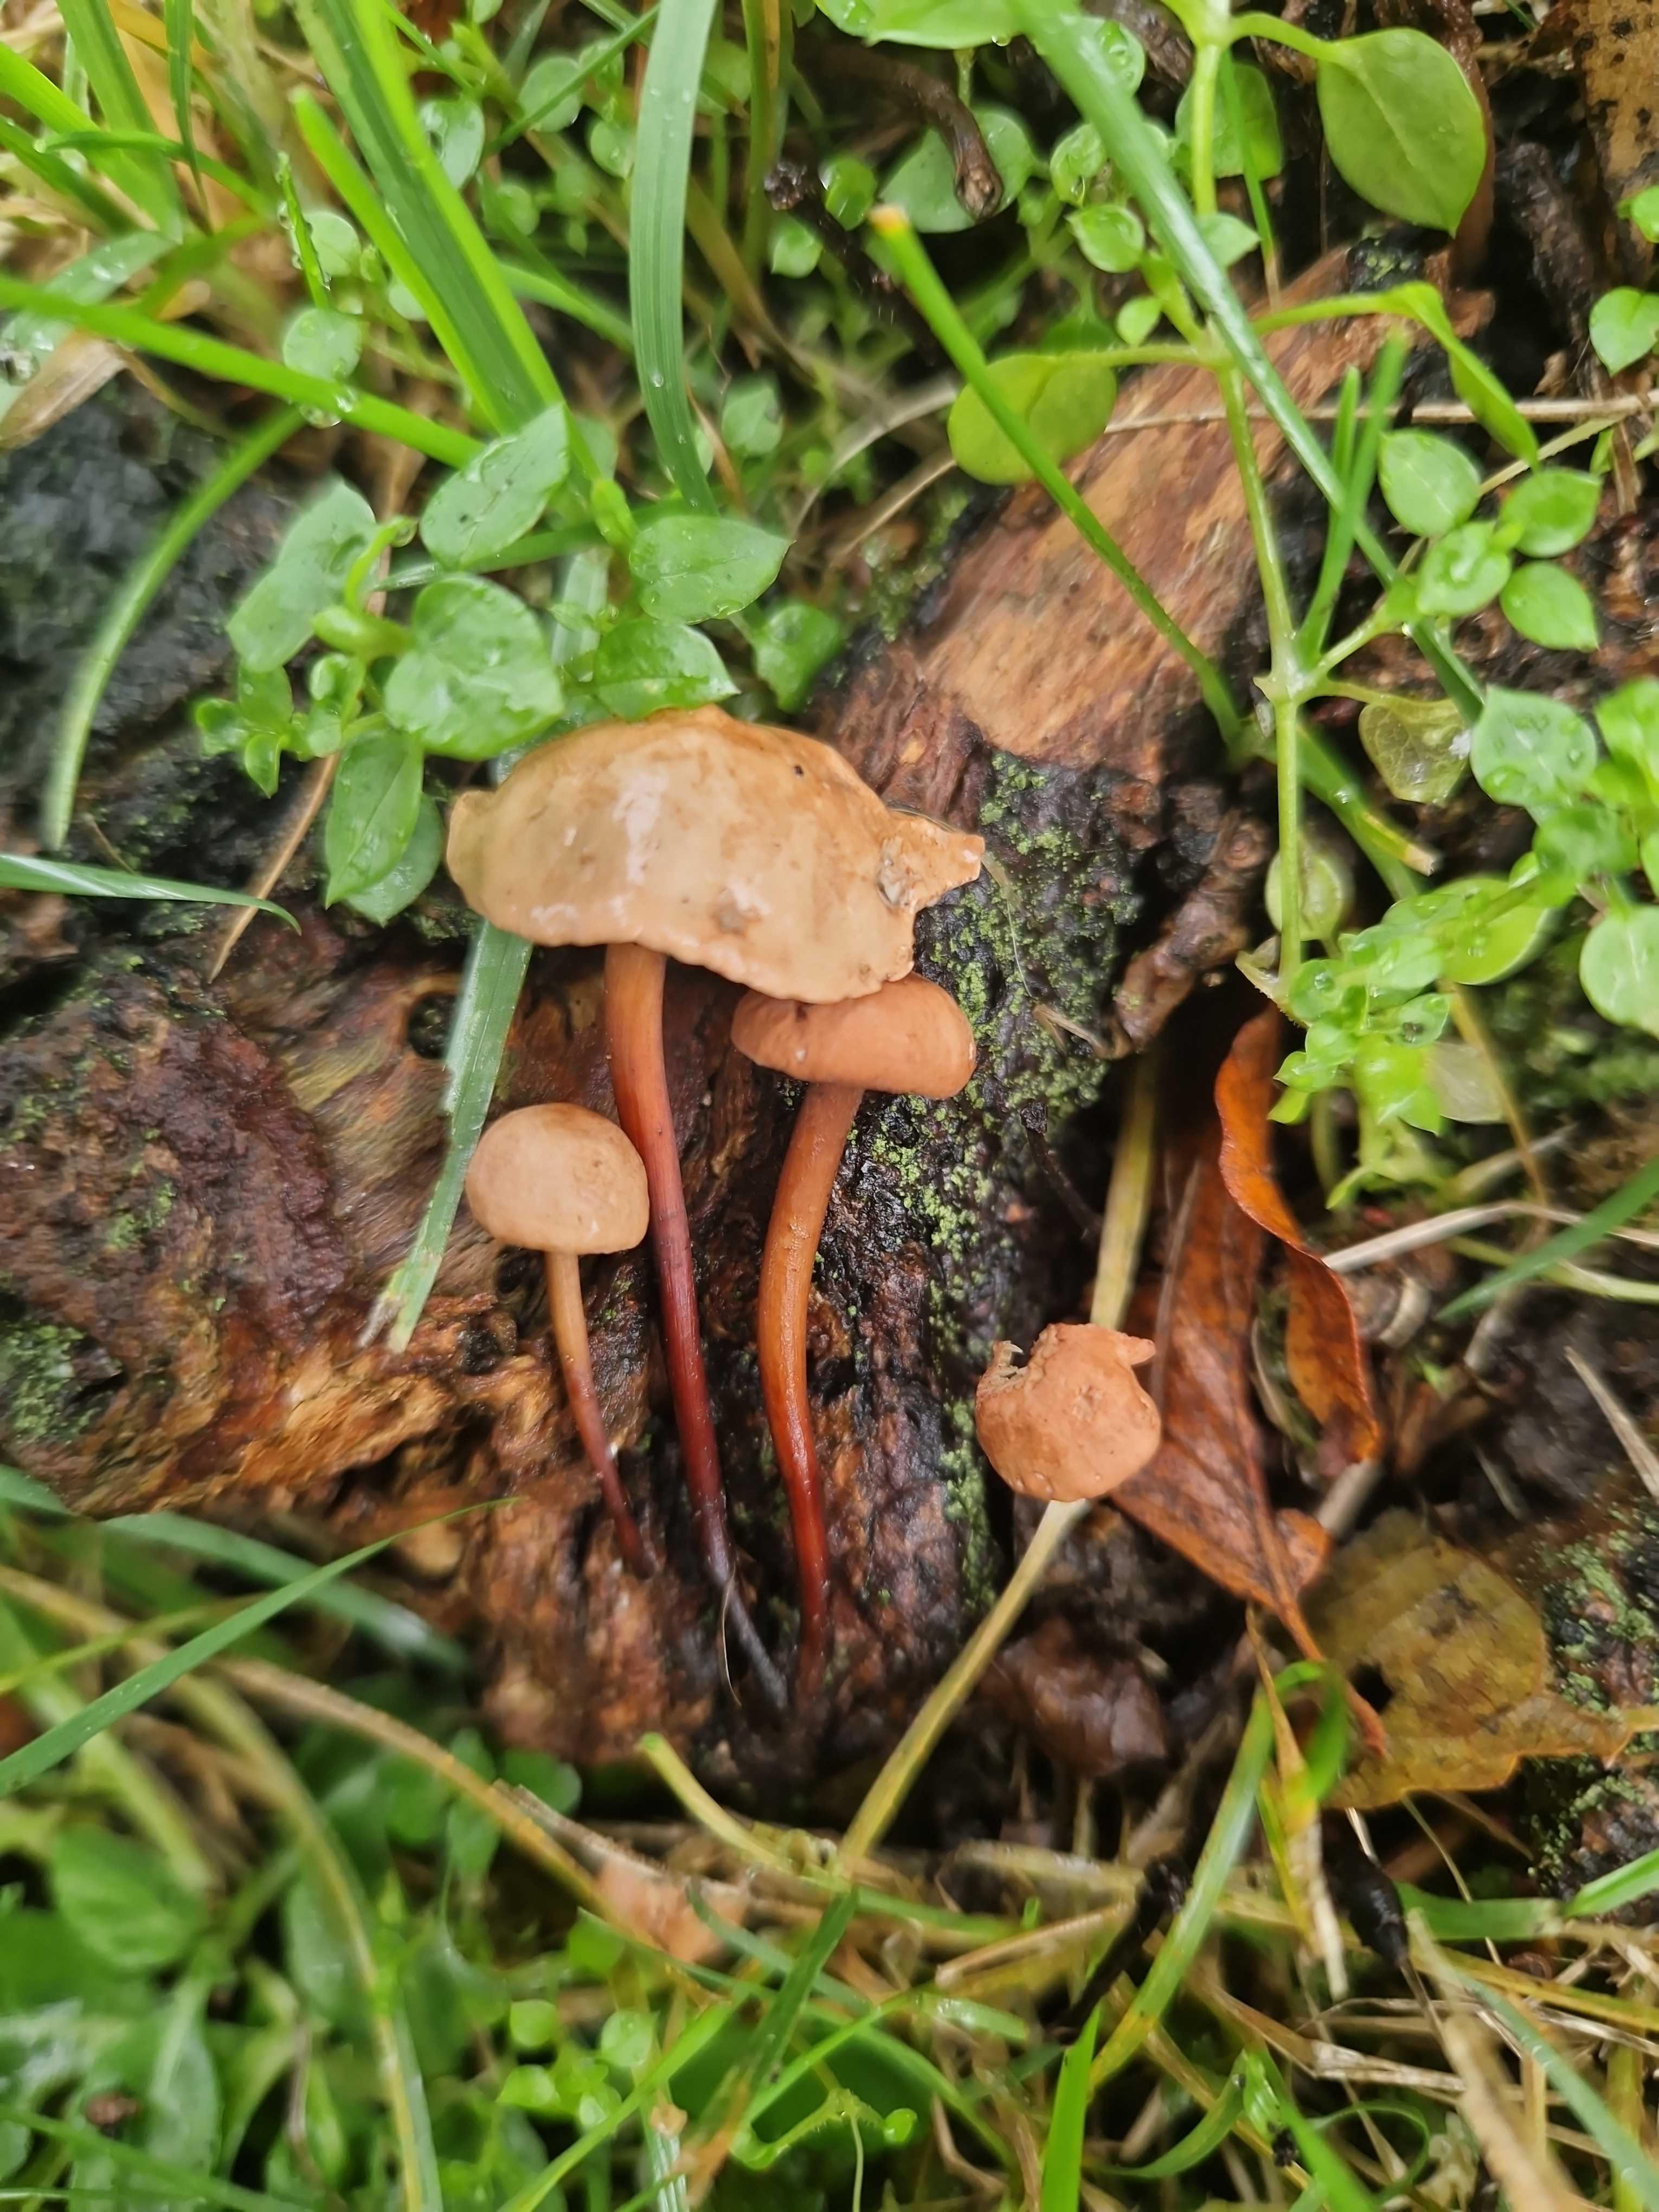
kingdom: Fungi
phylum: Basidiomycota
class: Agaricomycetes
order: Agaricales
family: Omphalotaceae
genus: Mycetinis
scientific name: Mycetinis scorodonius
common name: lille løghat
